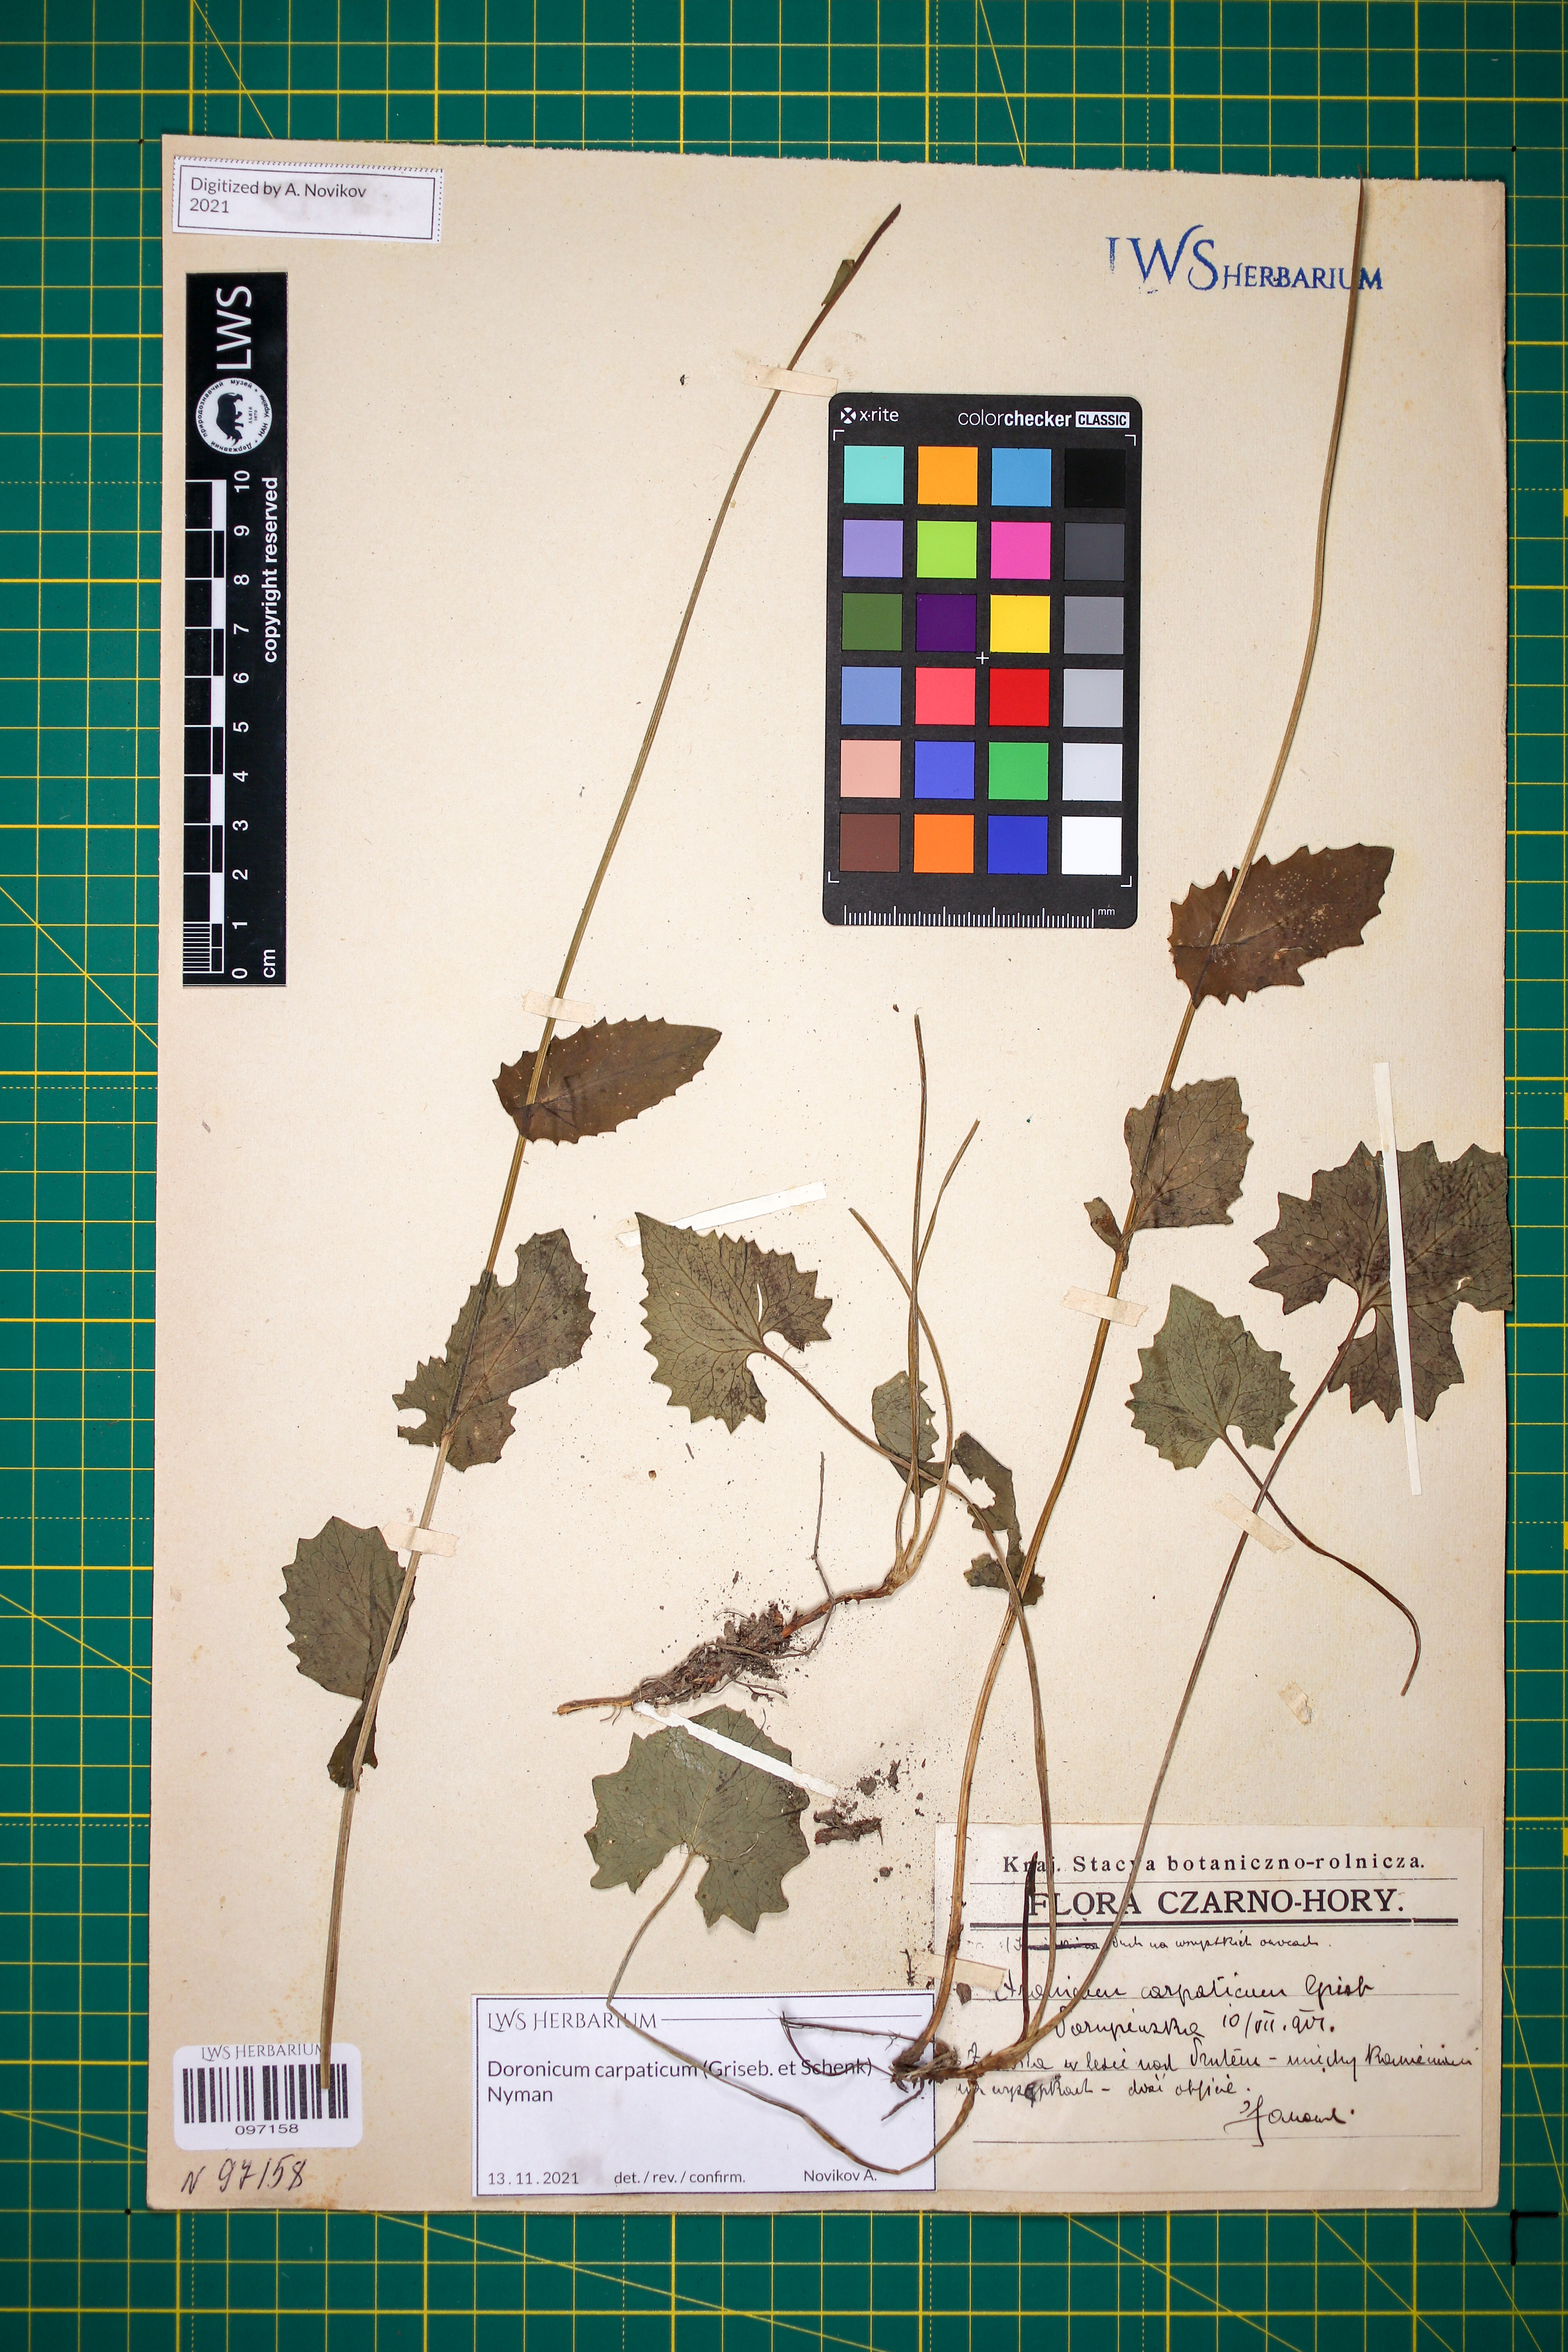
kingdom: Plantae
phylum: Tracheophyta
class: Magnoliopsida
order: Asterales
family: Asteraceae
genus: Doronicum
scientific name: Doronicum carpaticum
